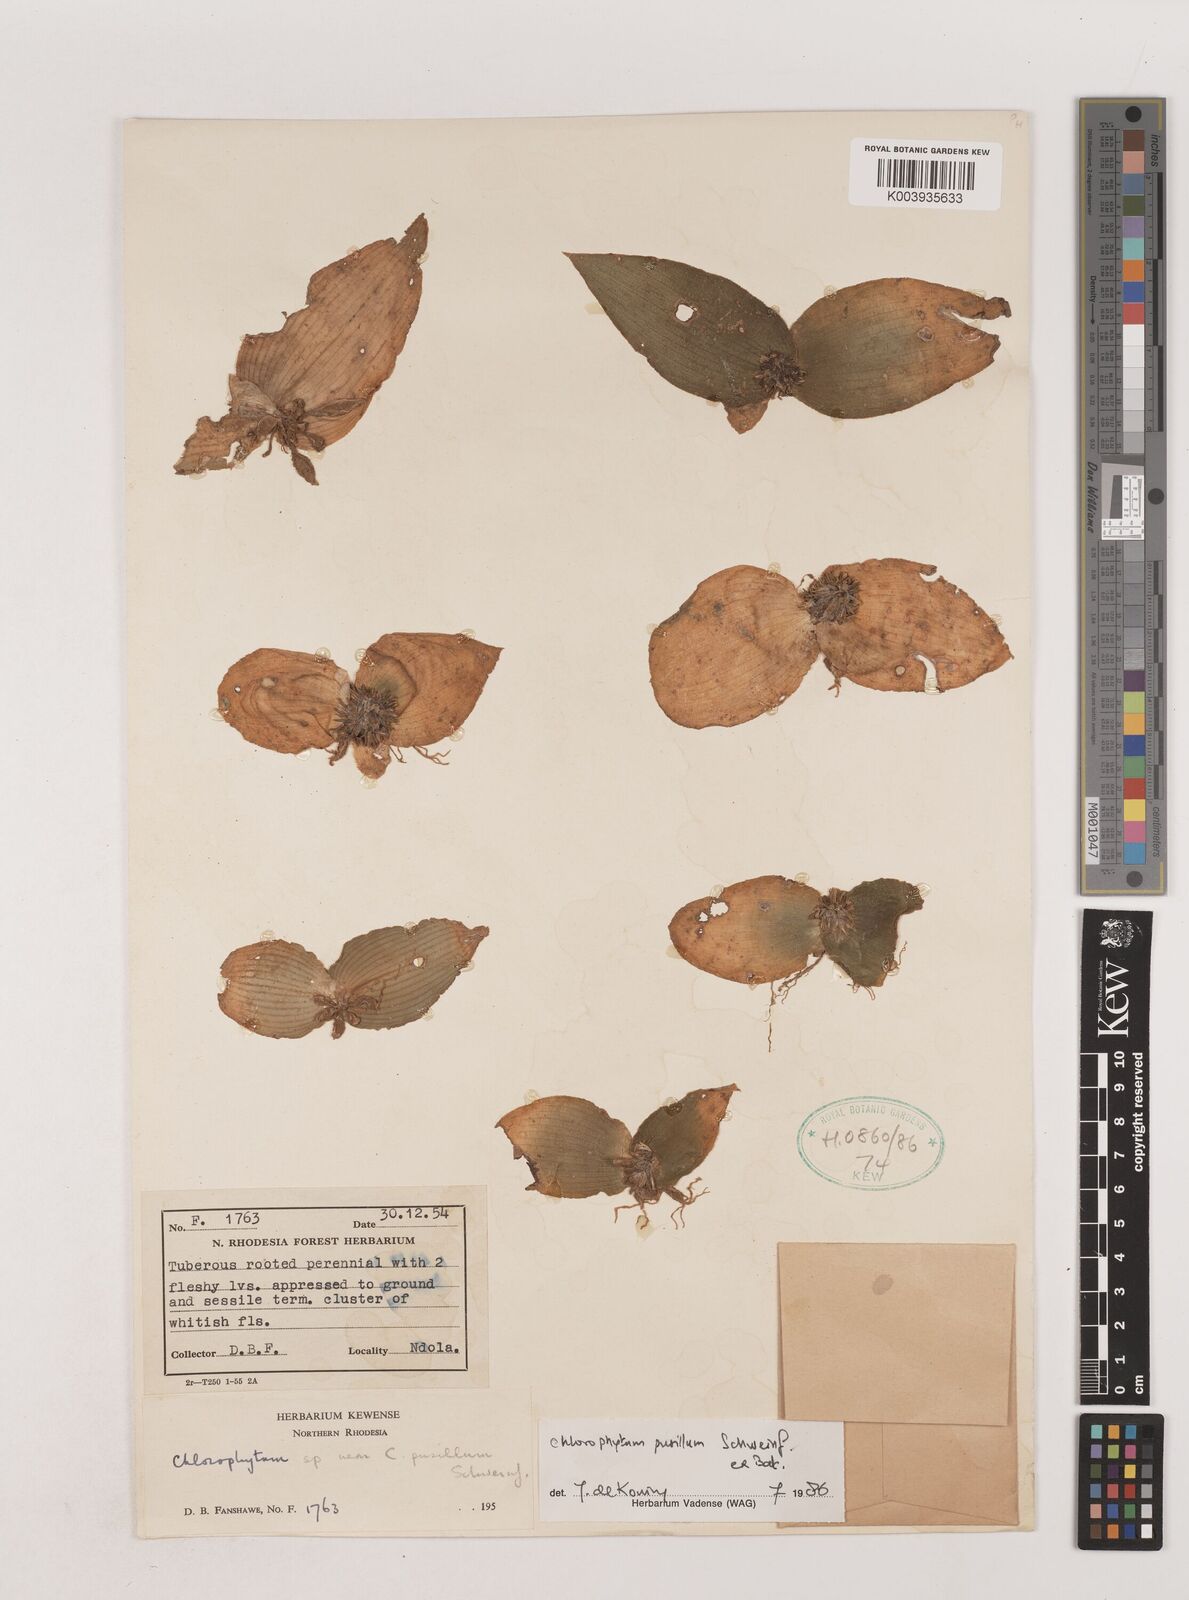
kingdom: Plantae
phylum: Tracheophyta
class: Liliopsida
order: Asparagales
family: Asparagaceae
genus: Chlorophytum
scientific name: Chlorophytum pusillum
